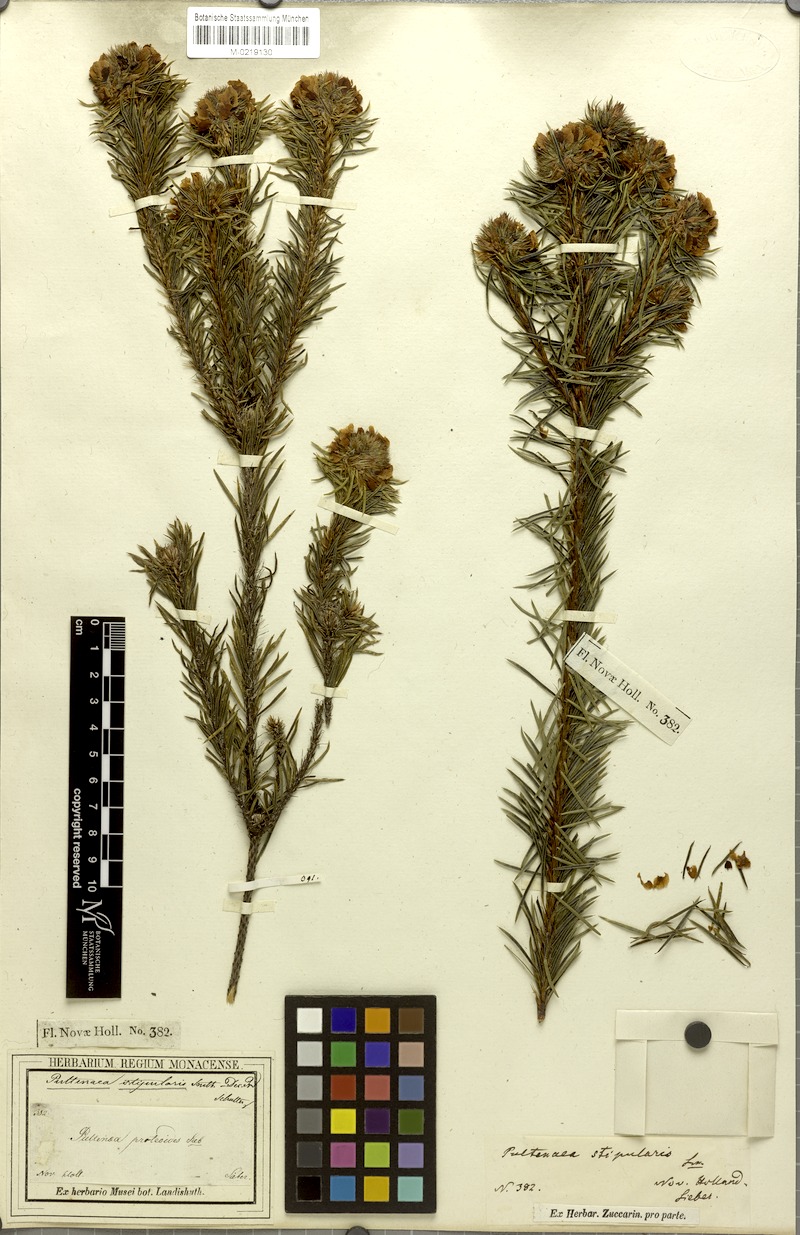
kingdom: Plantae
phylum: Tracheophyta
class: Magnoliopsida
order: Fabales
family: Fabaceae
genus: Pultenaea
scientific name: Pultenaea stipularis
